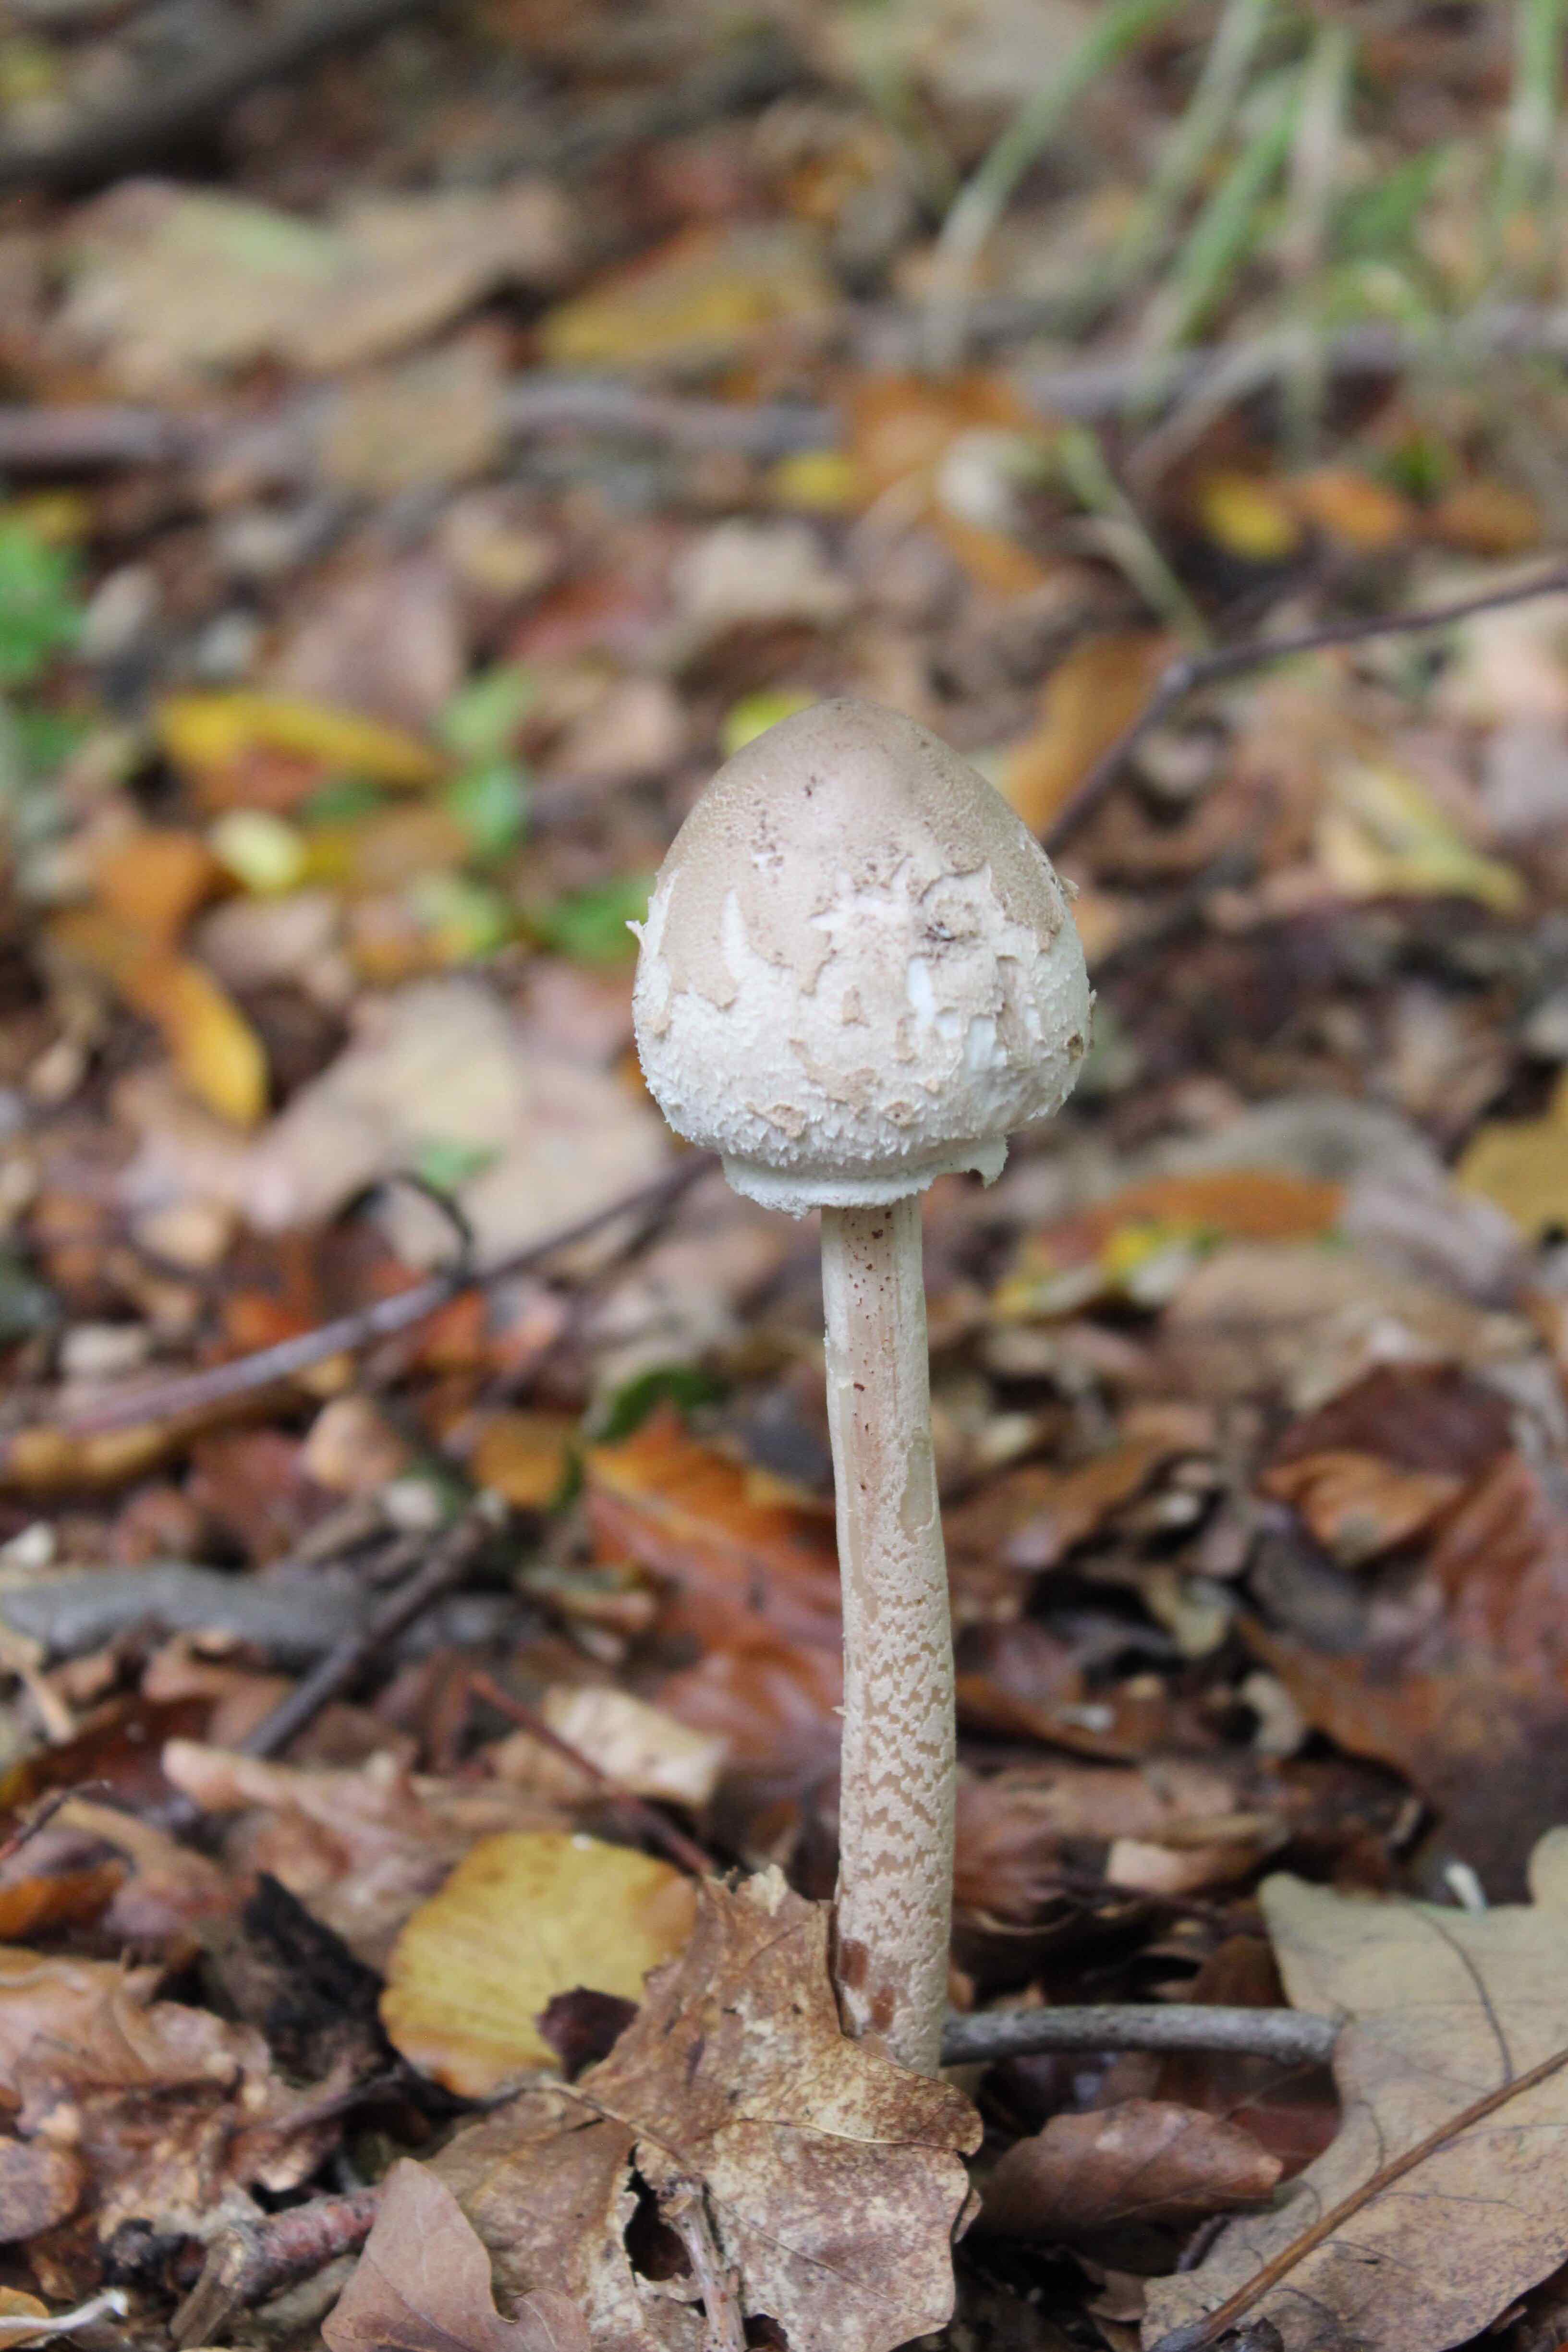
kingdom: Fungi
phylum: Basidiomycota
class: Agaricomycetes
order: Agaricales
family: Agaricaceae
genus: Macrolepiota
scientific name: Macrolepiota mastoidea
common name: puklet kæmpeparasolhat
